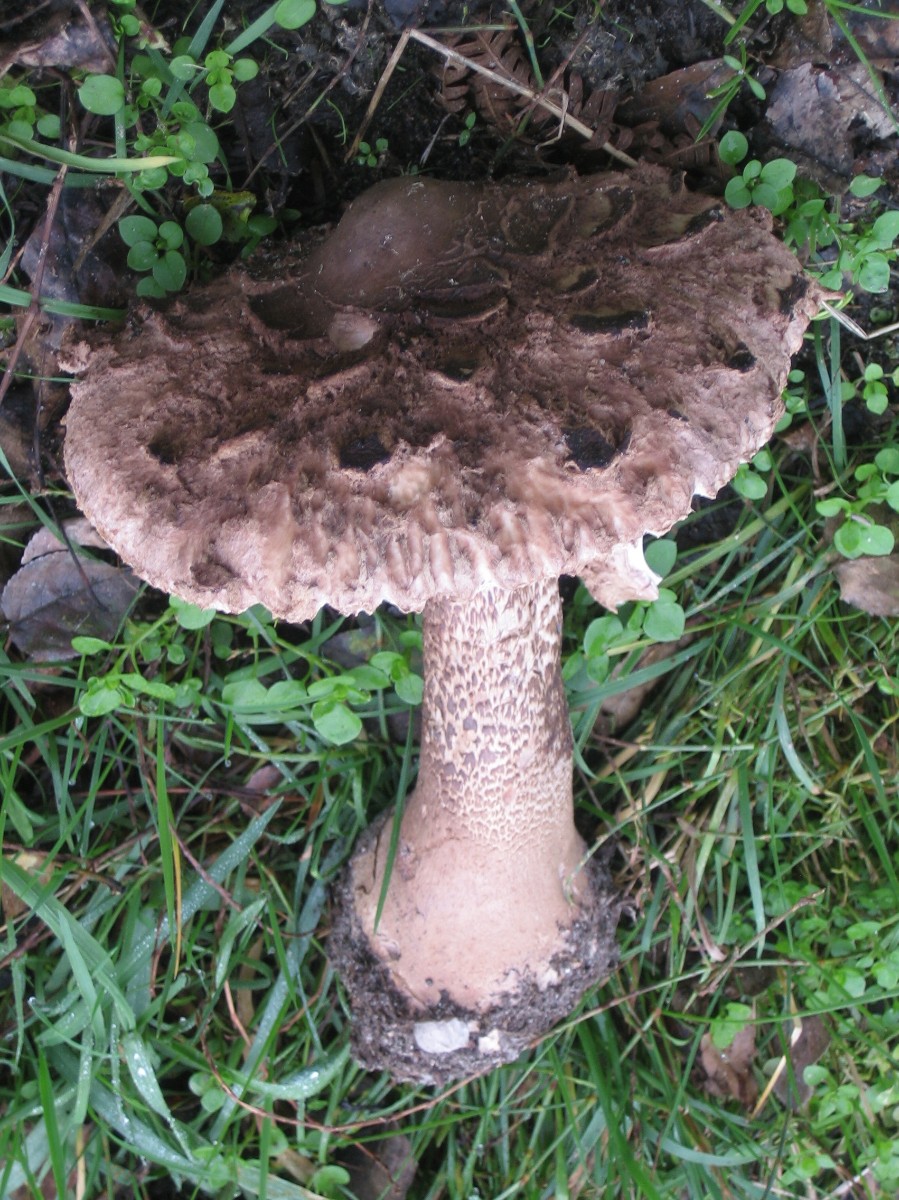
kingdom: Fungi
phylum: Basidiomycota
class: Agaricomycetes
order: Agaricales
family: Agaricaceae
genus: Macrolepiota
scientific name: Macrolepiota procera
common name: stor kæmpeparasolhat
